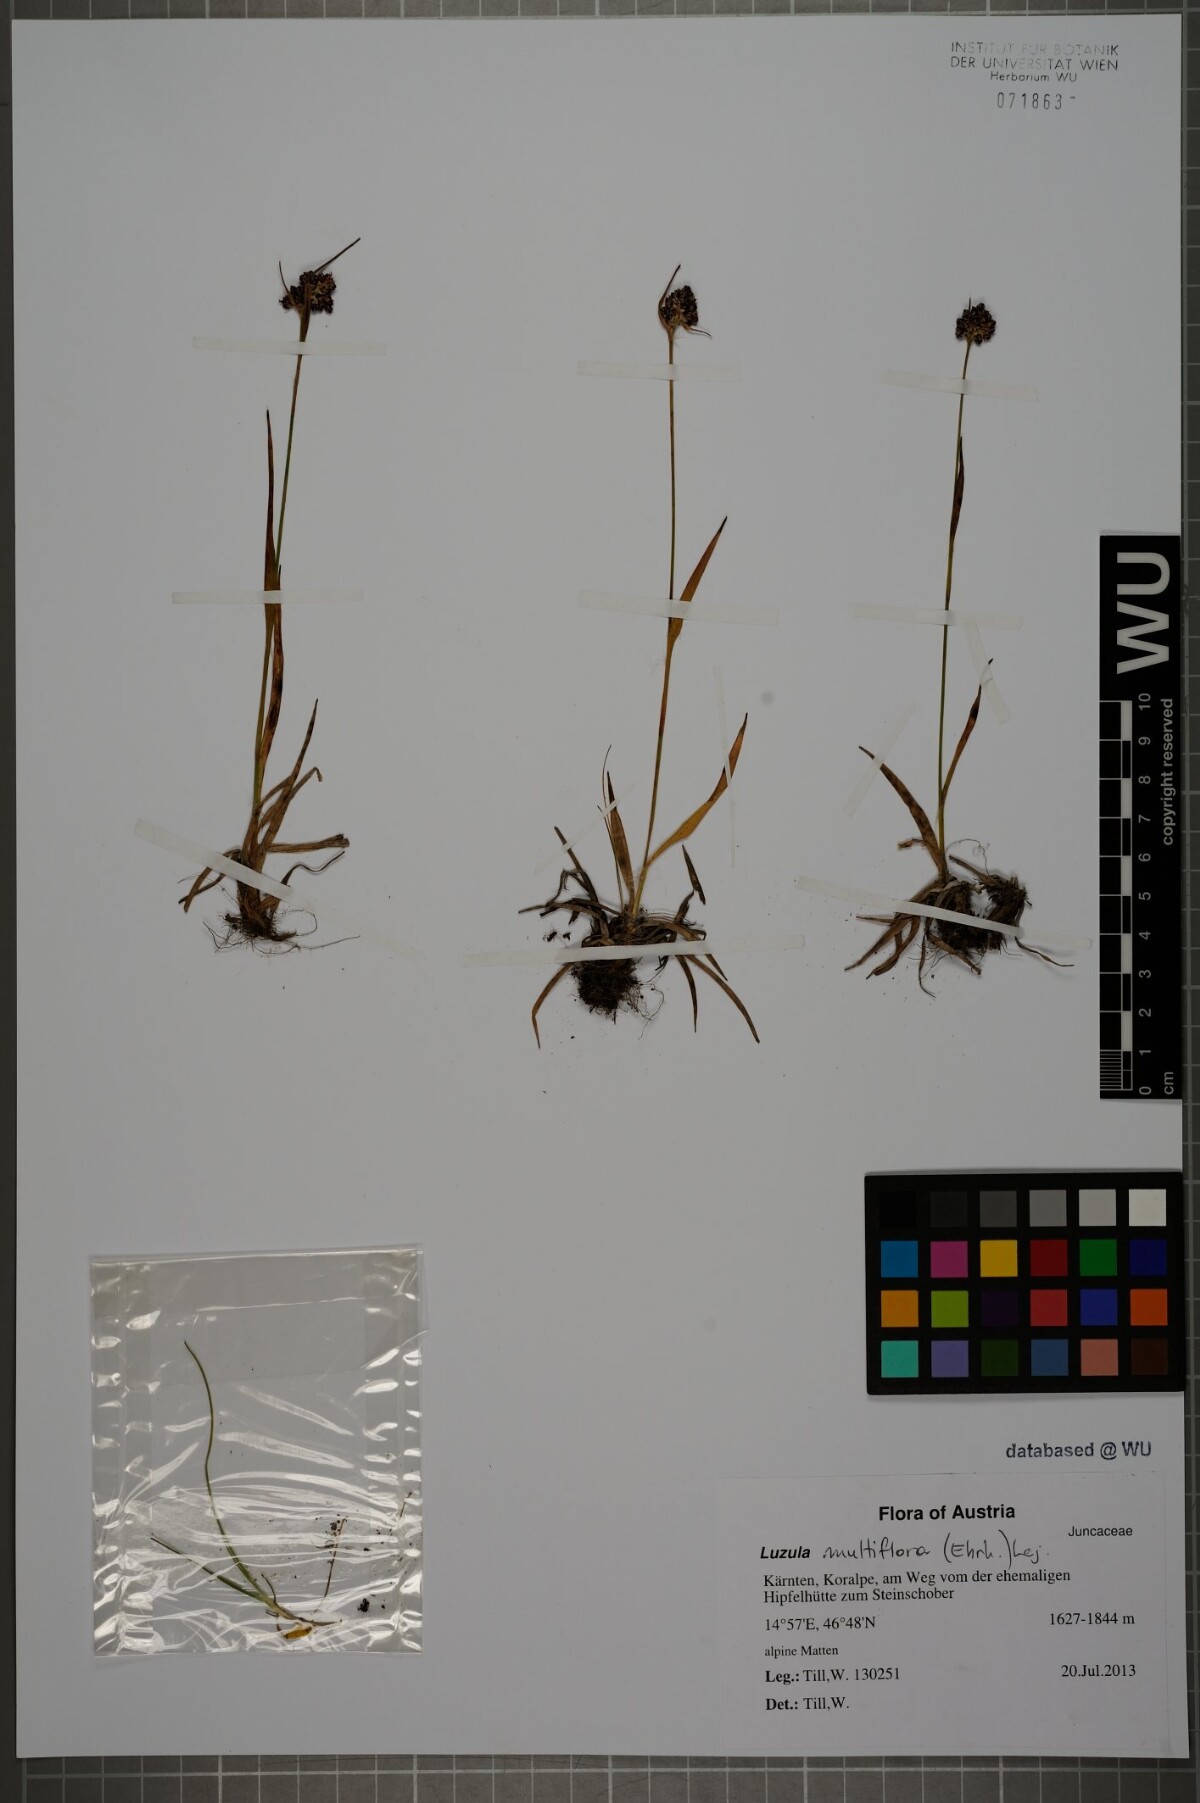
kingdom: Plantae
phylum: Tracheophyta
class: Liliopsida
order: Poales
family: Juncaceae
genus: Luzula
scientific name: Luzula multiflora
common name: Heath wood-rush
